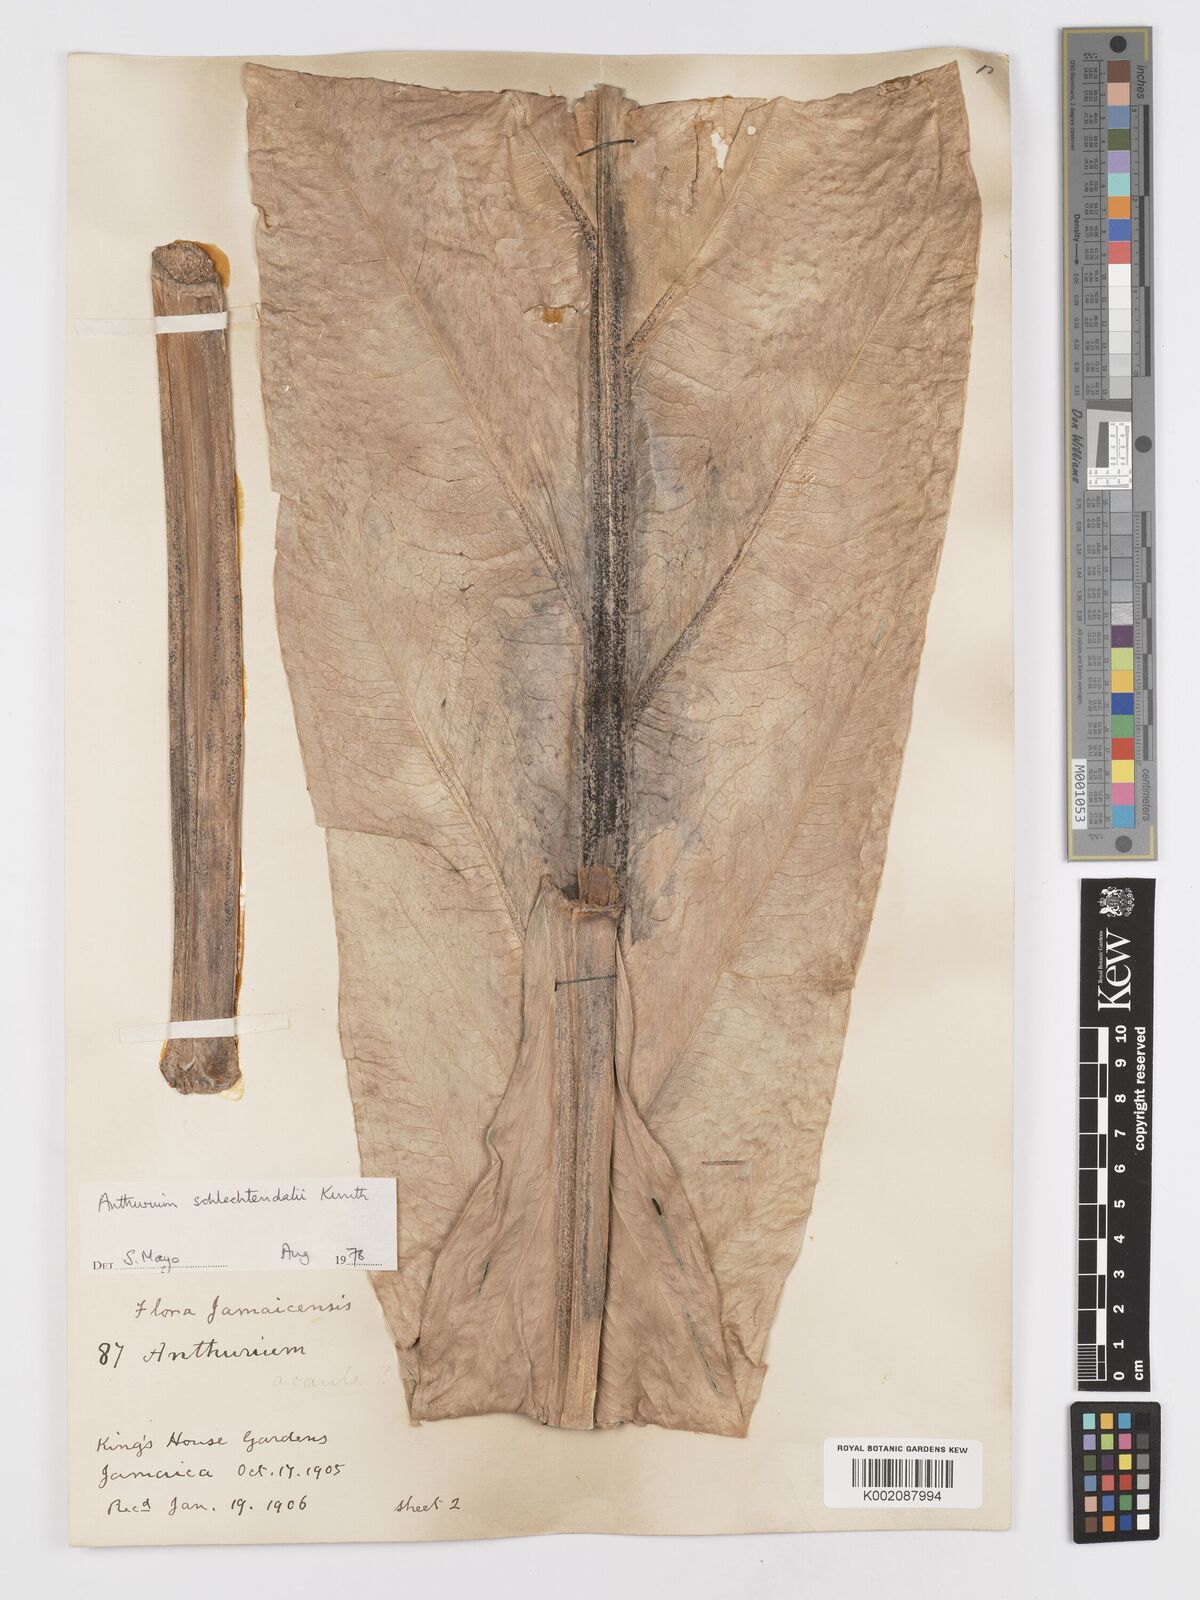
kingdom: Plantae
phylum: Tracheophyta
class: Liliopsida
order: Alismatales
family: Araceae
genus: Anthurium
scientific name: Anthurium schlechtendalii
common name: Laceleaf
